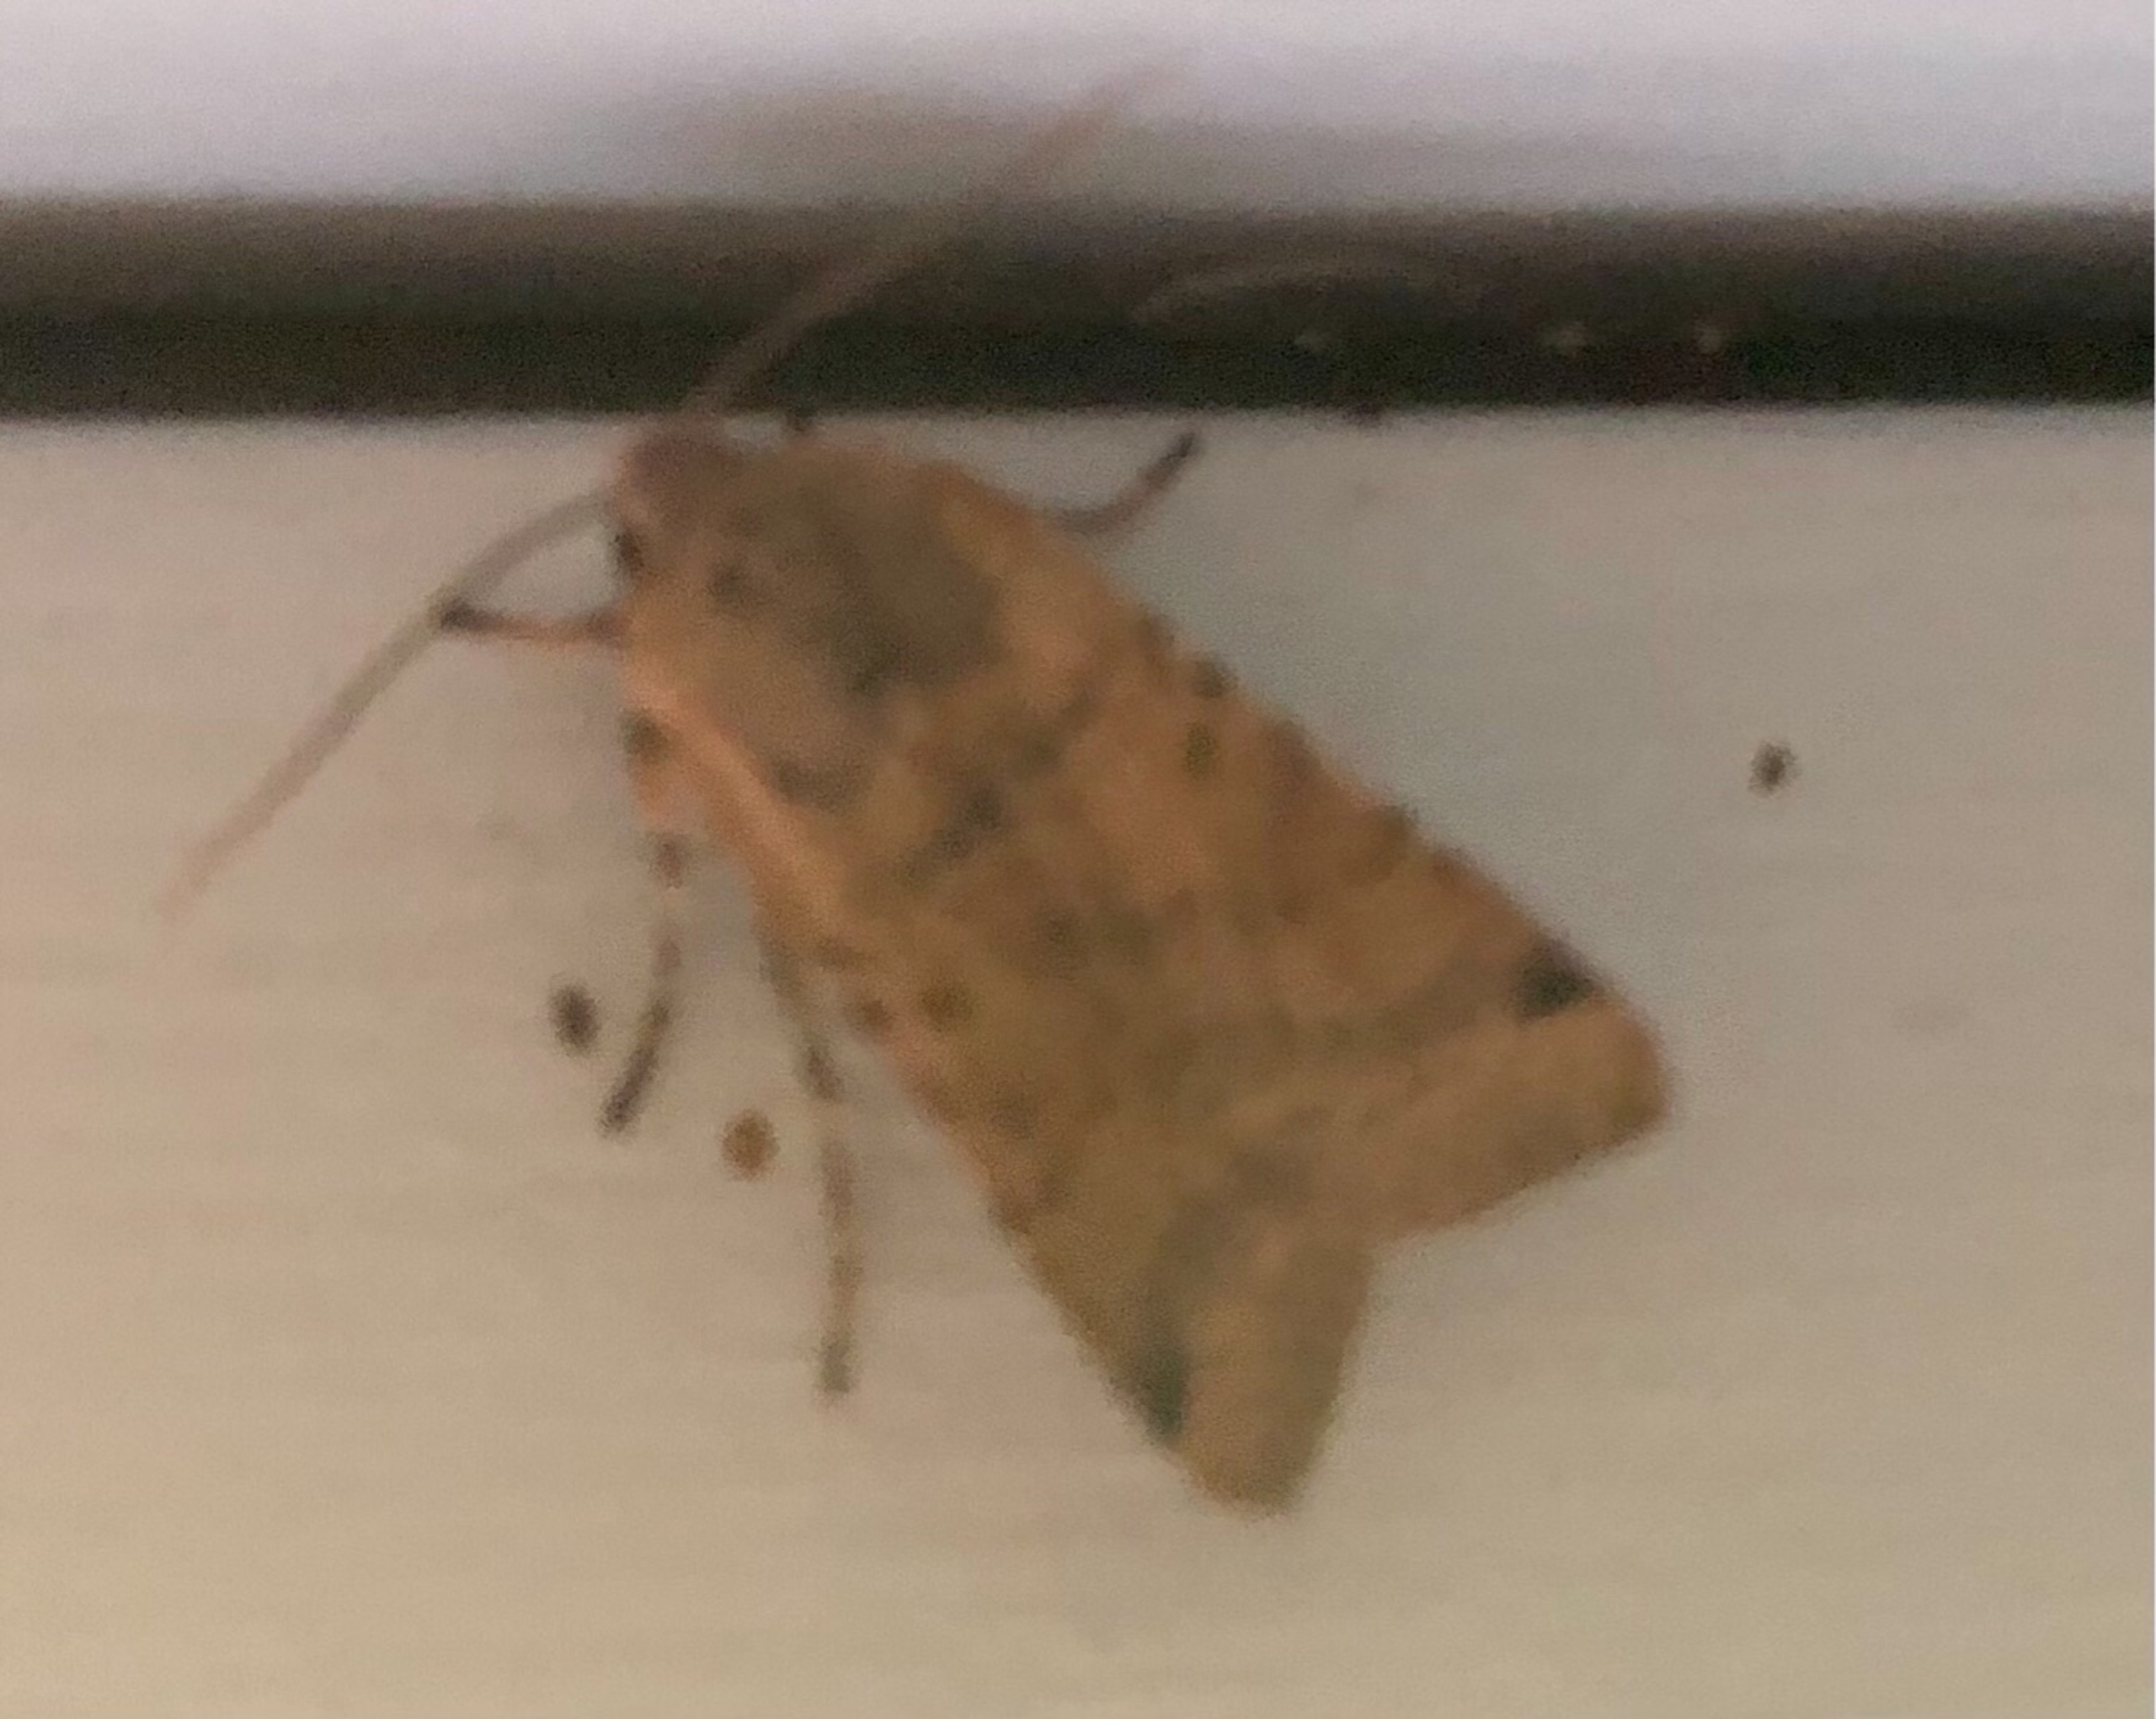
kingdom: Animalia
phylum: Arthropoda
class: Insecta
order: Lepidoptera
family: Noctuidae
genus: Agrochola
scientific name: Agrochola lychnidis
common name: Foranderlig jordfarveugle
